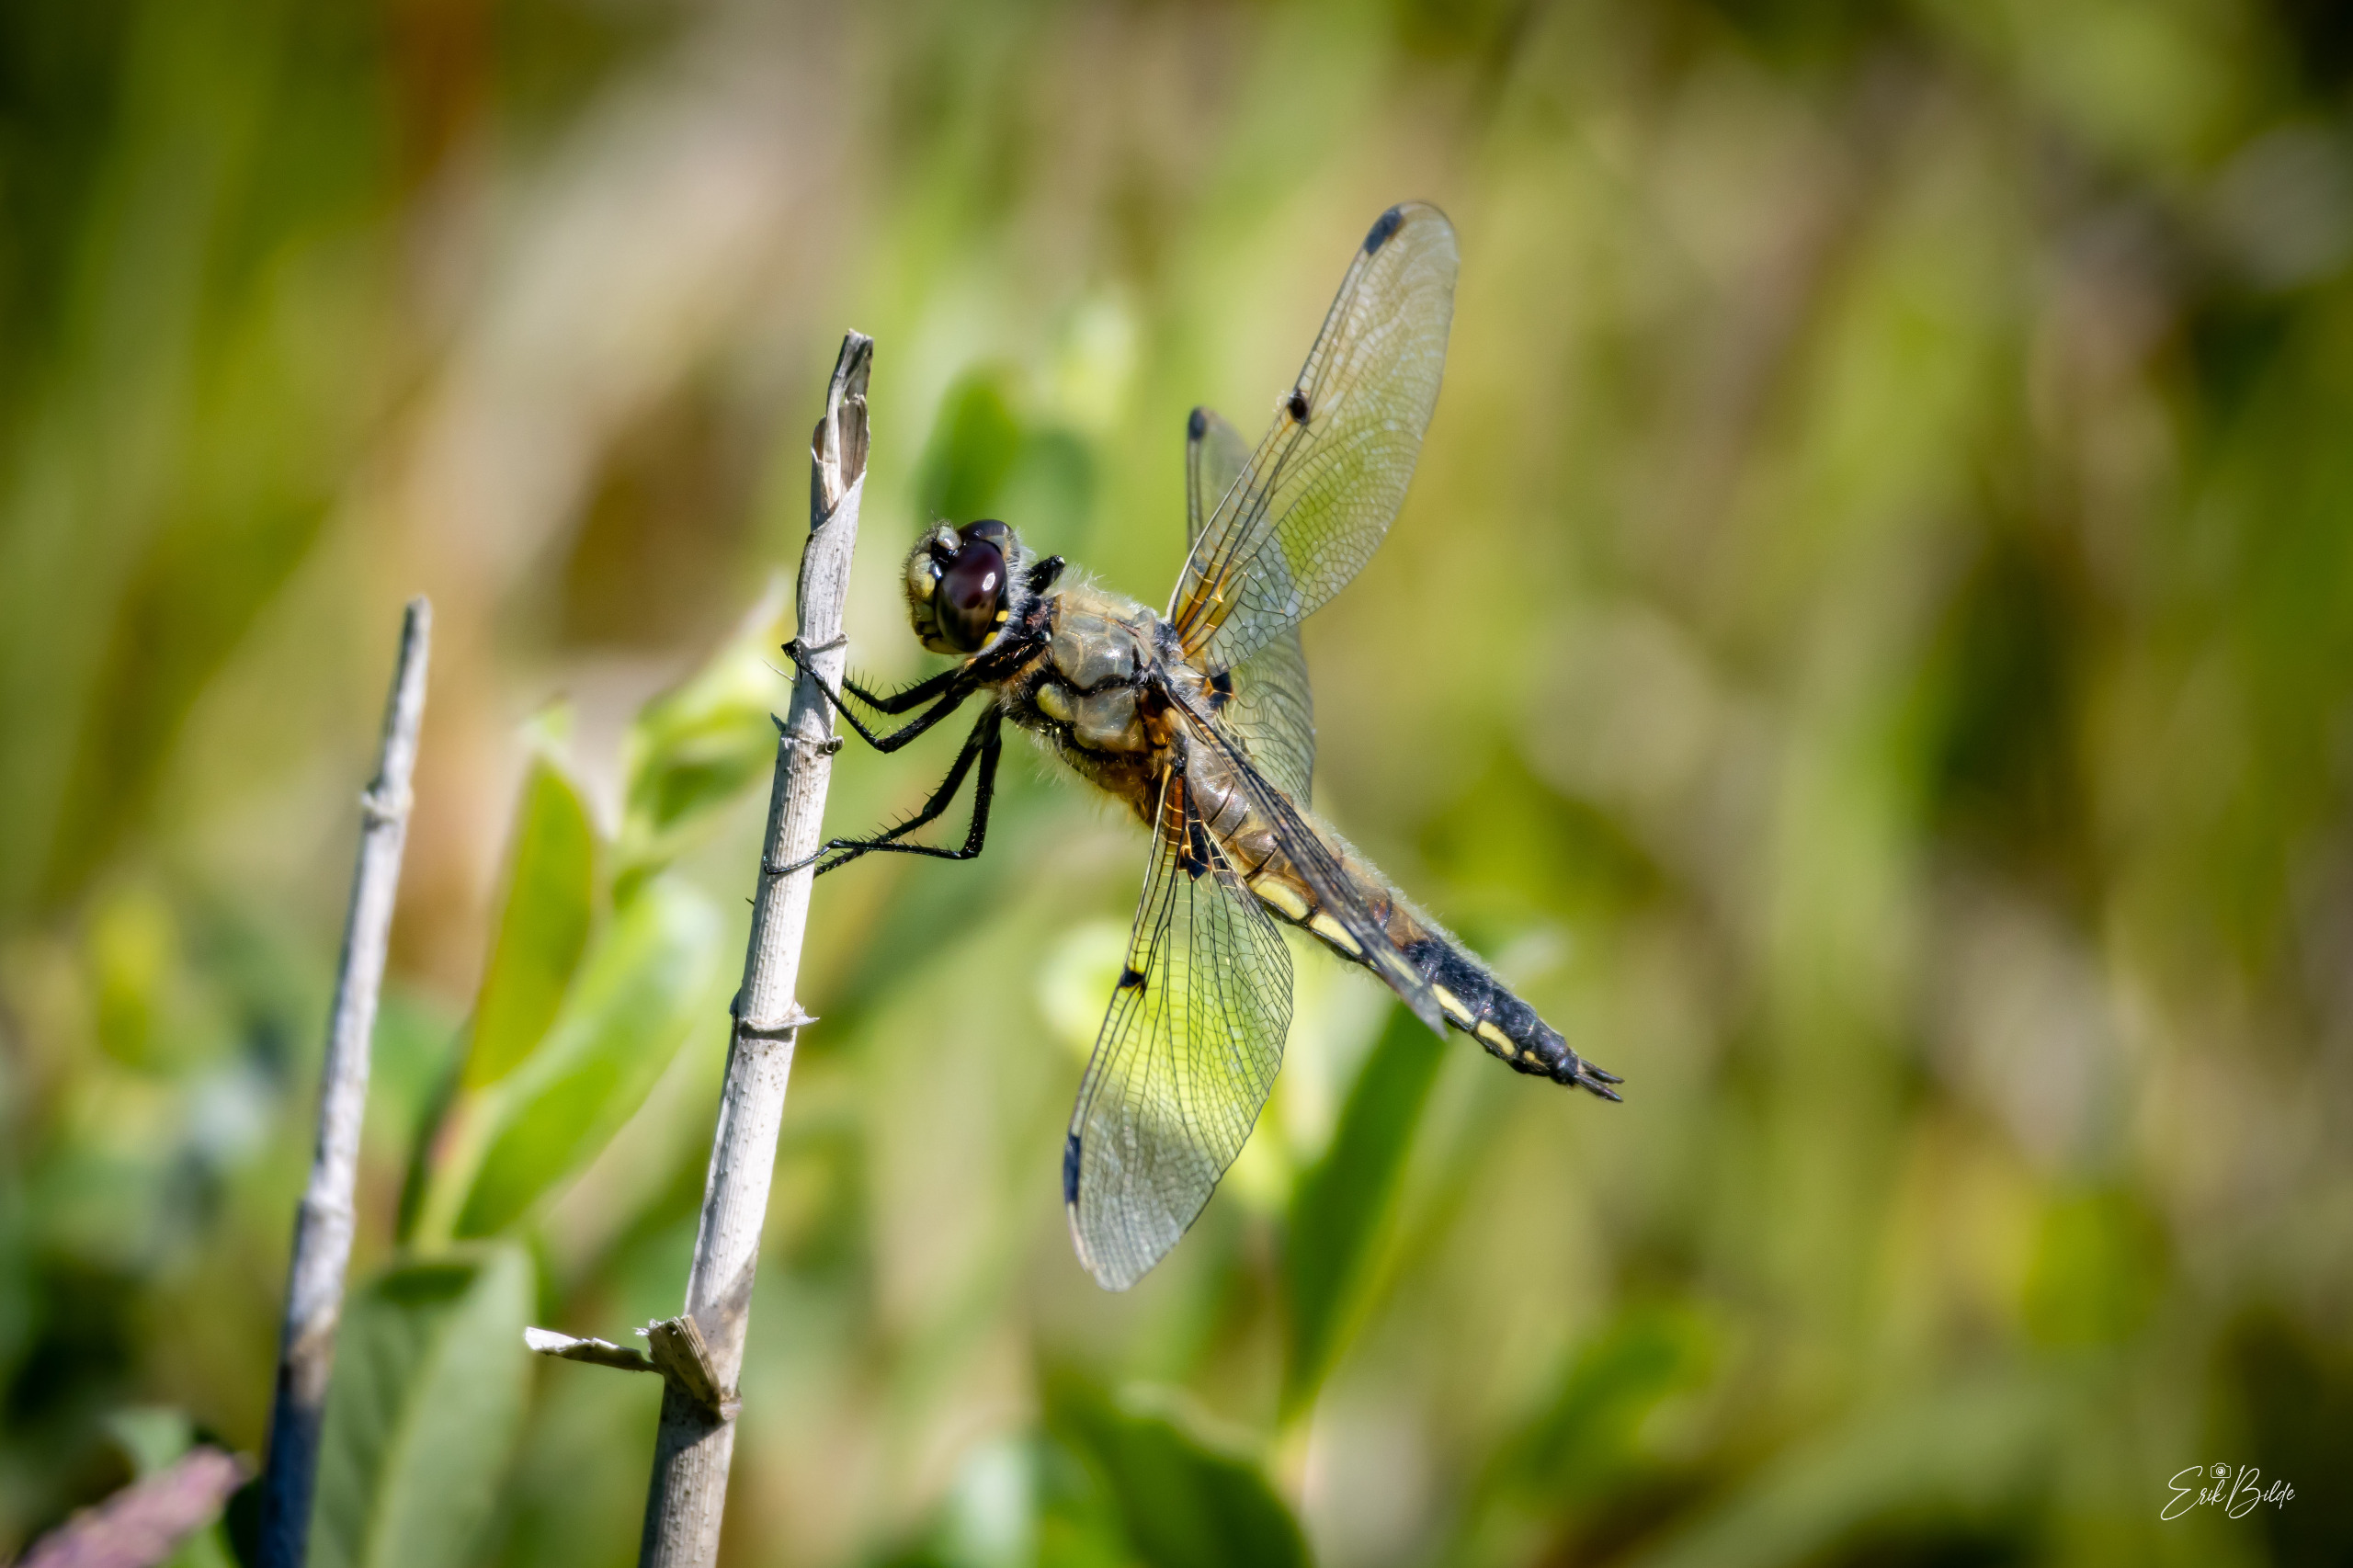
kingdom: Animalia
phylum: Arthropoda
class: Insecta
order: Odonata
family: Libellulidae
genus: Libellula
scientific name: Libellula quadrimaculata
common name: Fireplettet libel
